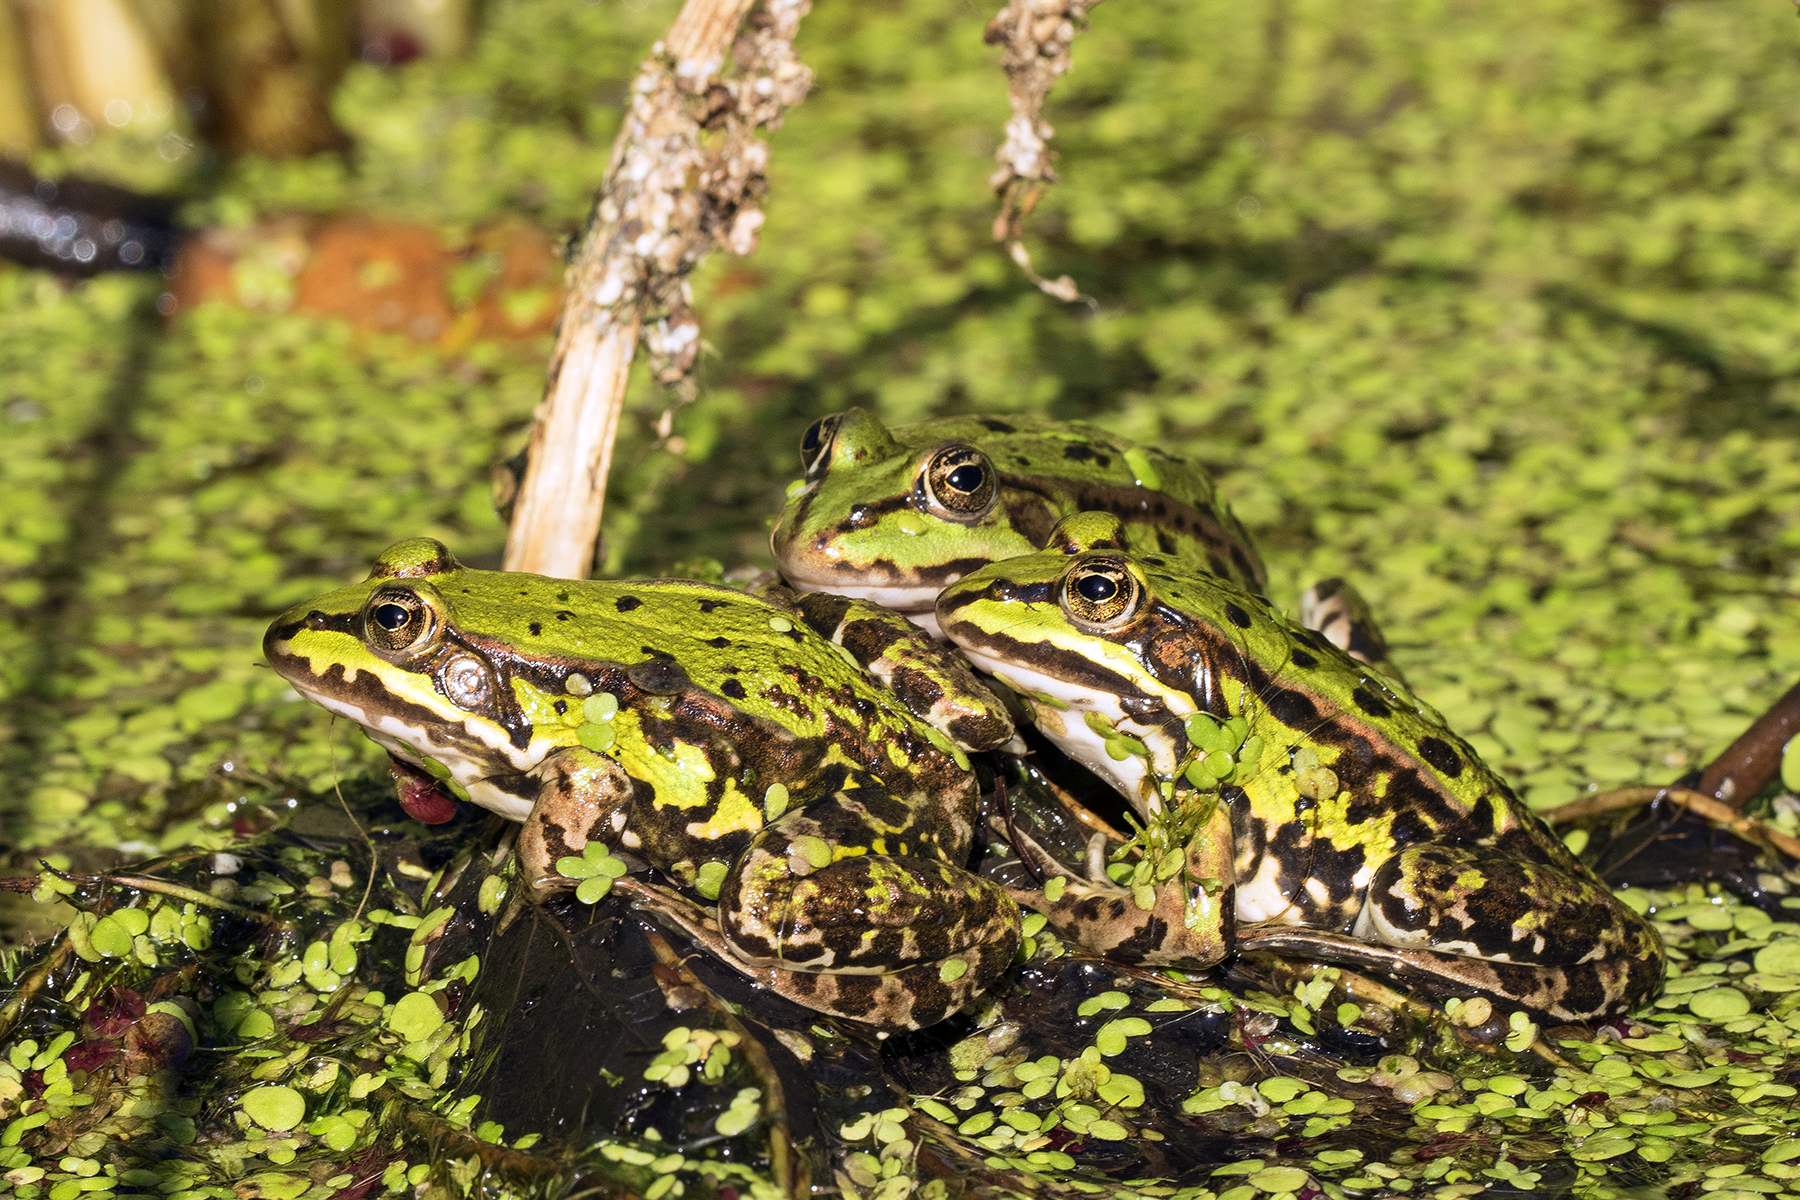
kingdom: Animalia
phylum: Chordata
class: Amphibia
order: Anura
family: Ranidae
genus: Pelophylax
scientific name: Pelophylax lessonae
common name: Grøn frø
